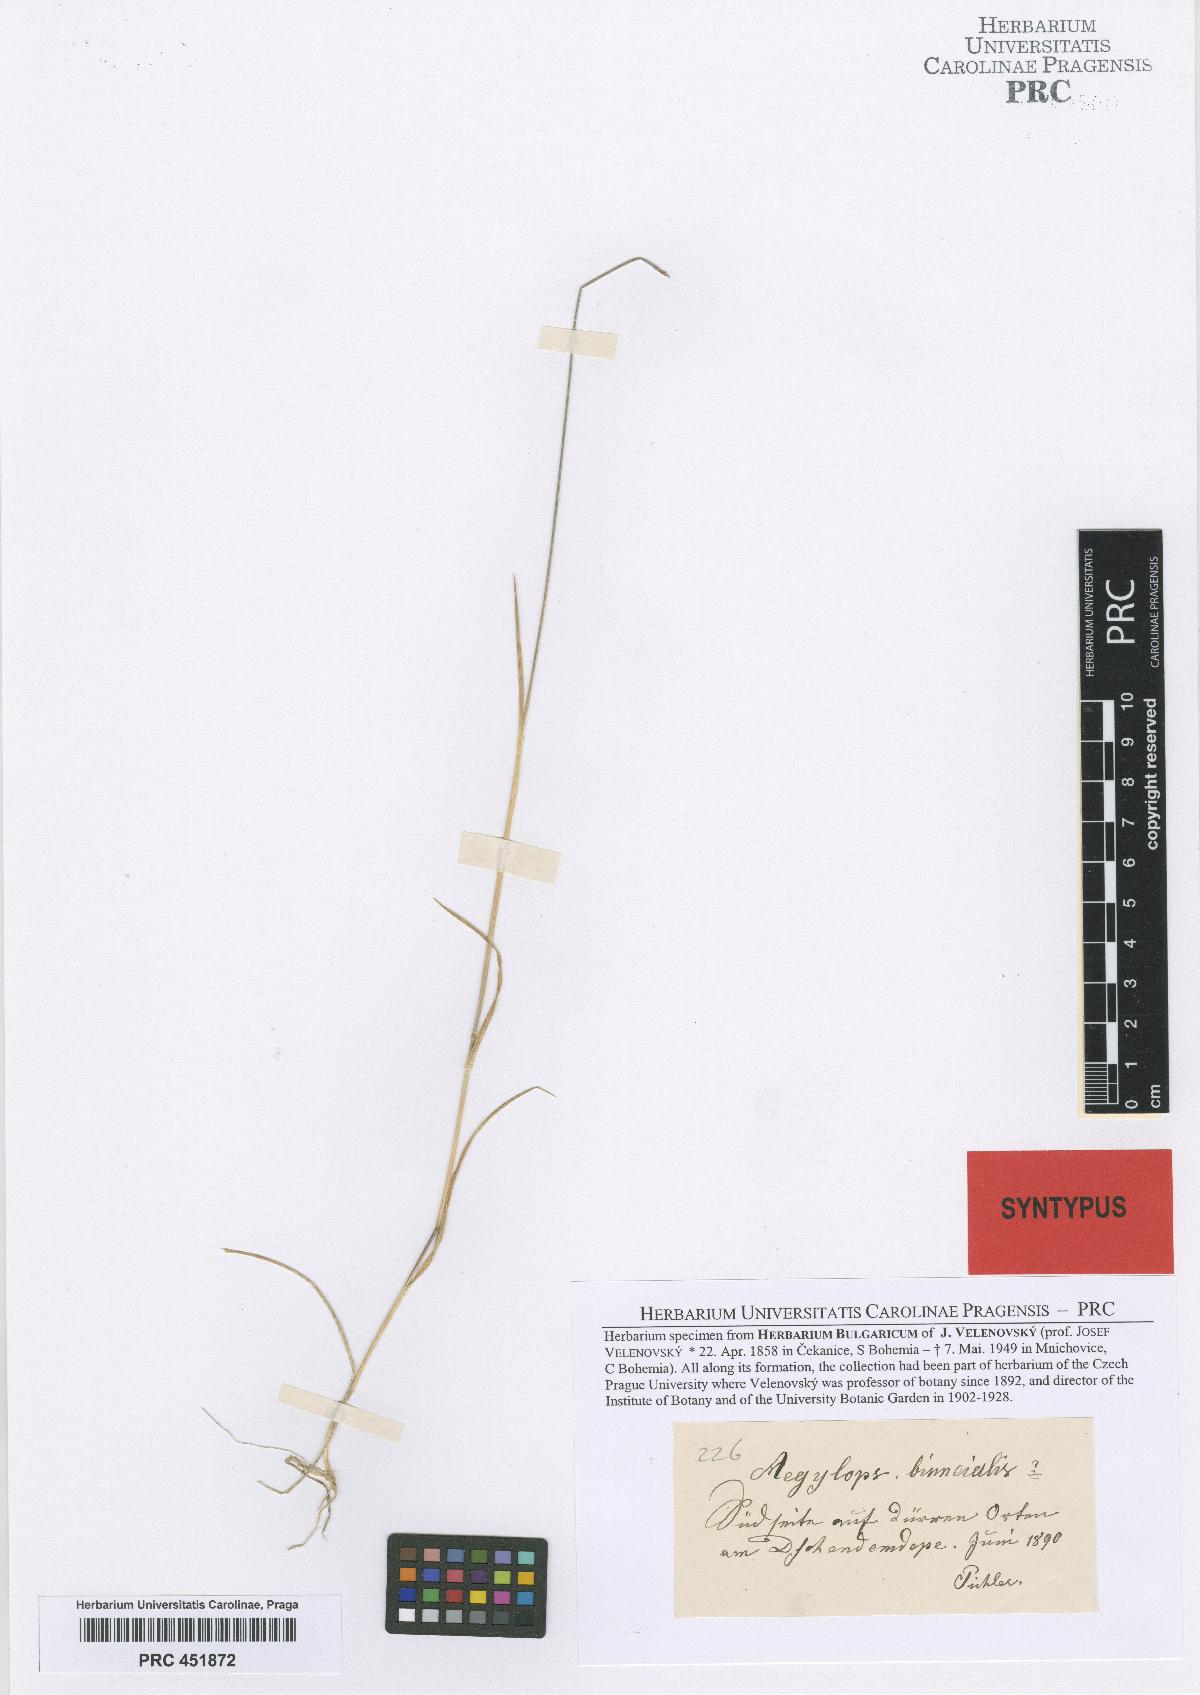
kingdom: Plantae
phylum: Tracheophyta
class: Liliopsida
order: Poales
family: Poaceae
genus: Aegilops
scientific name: Aegilops cylindrica
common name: Jointed goatgrass
